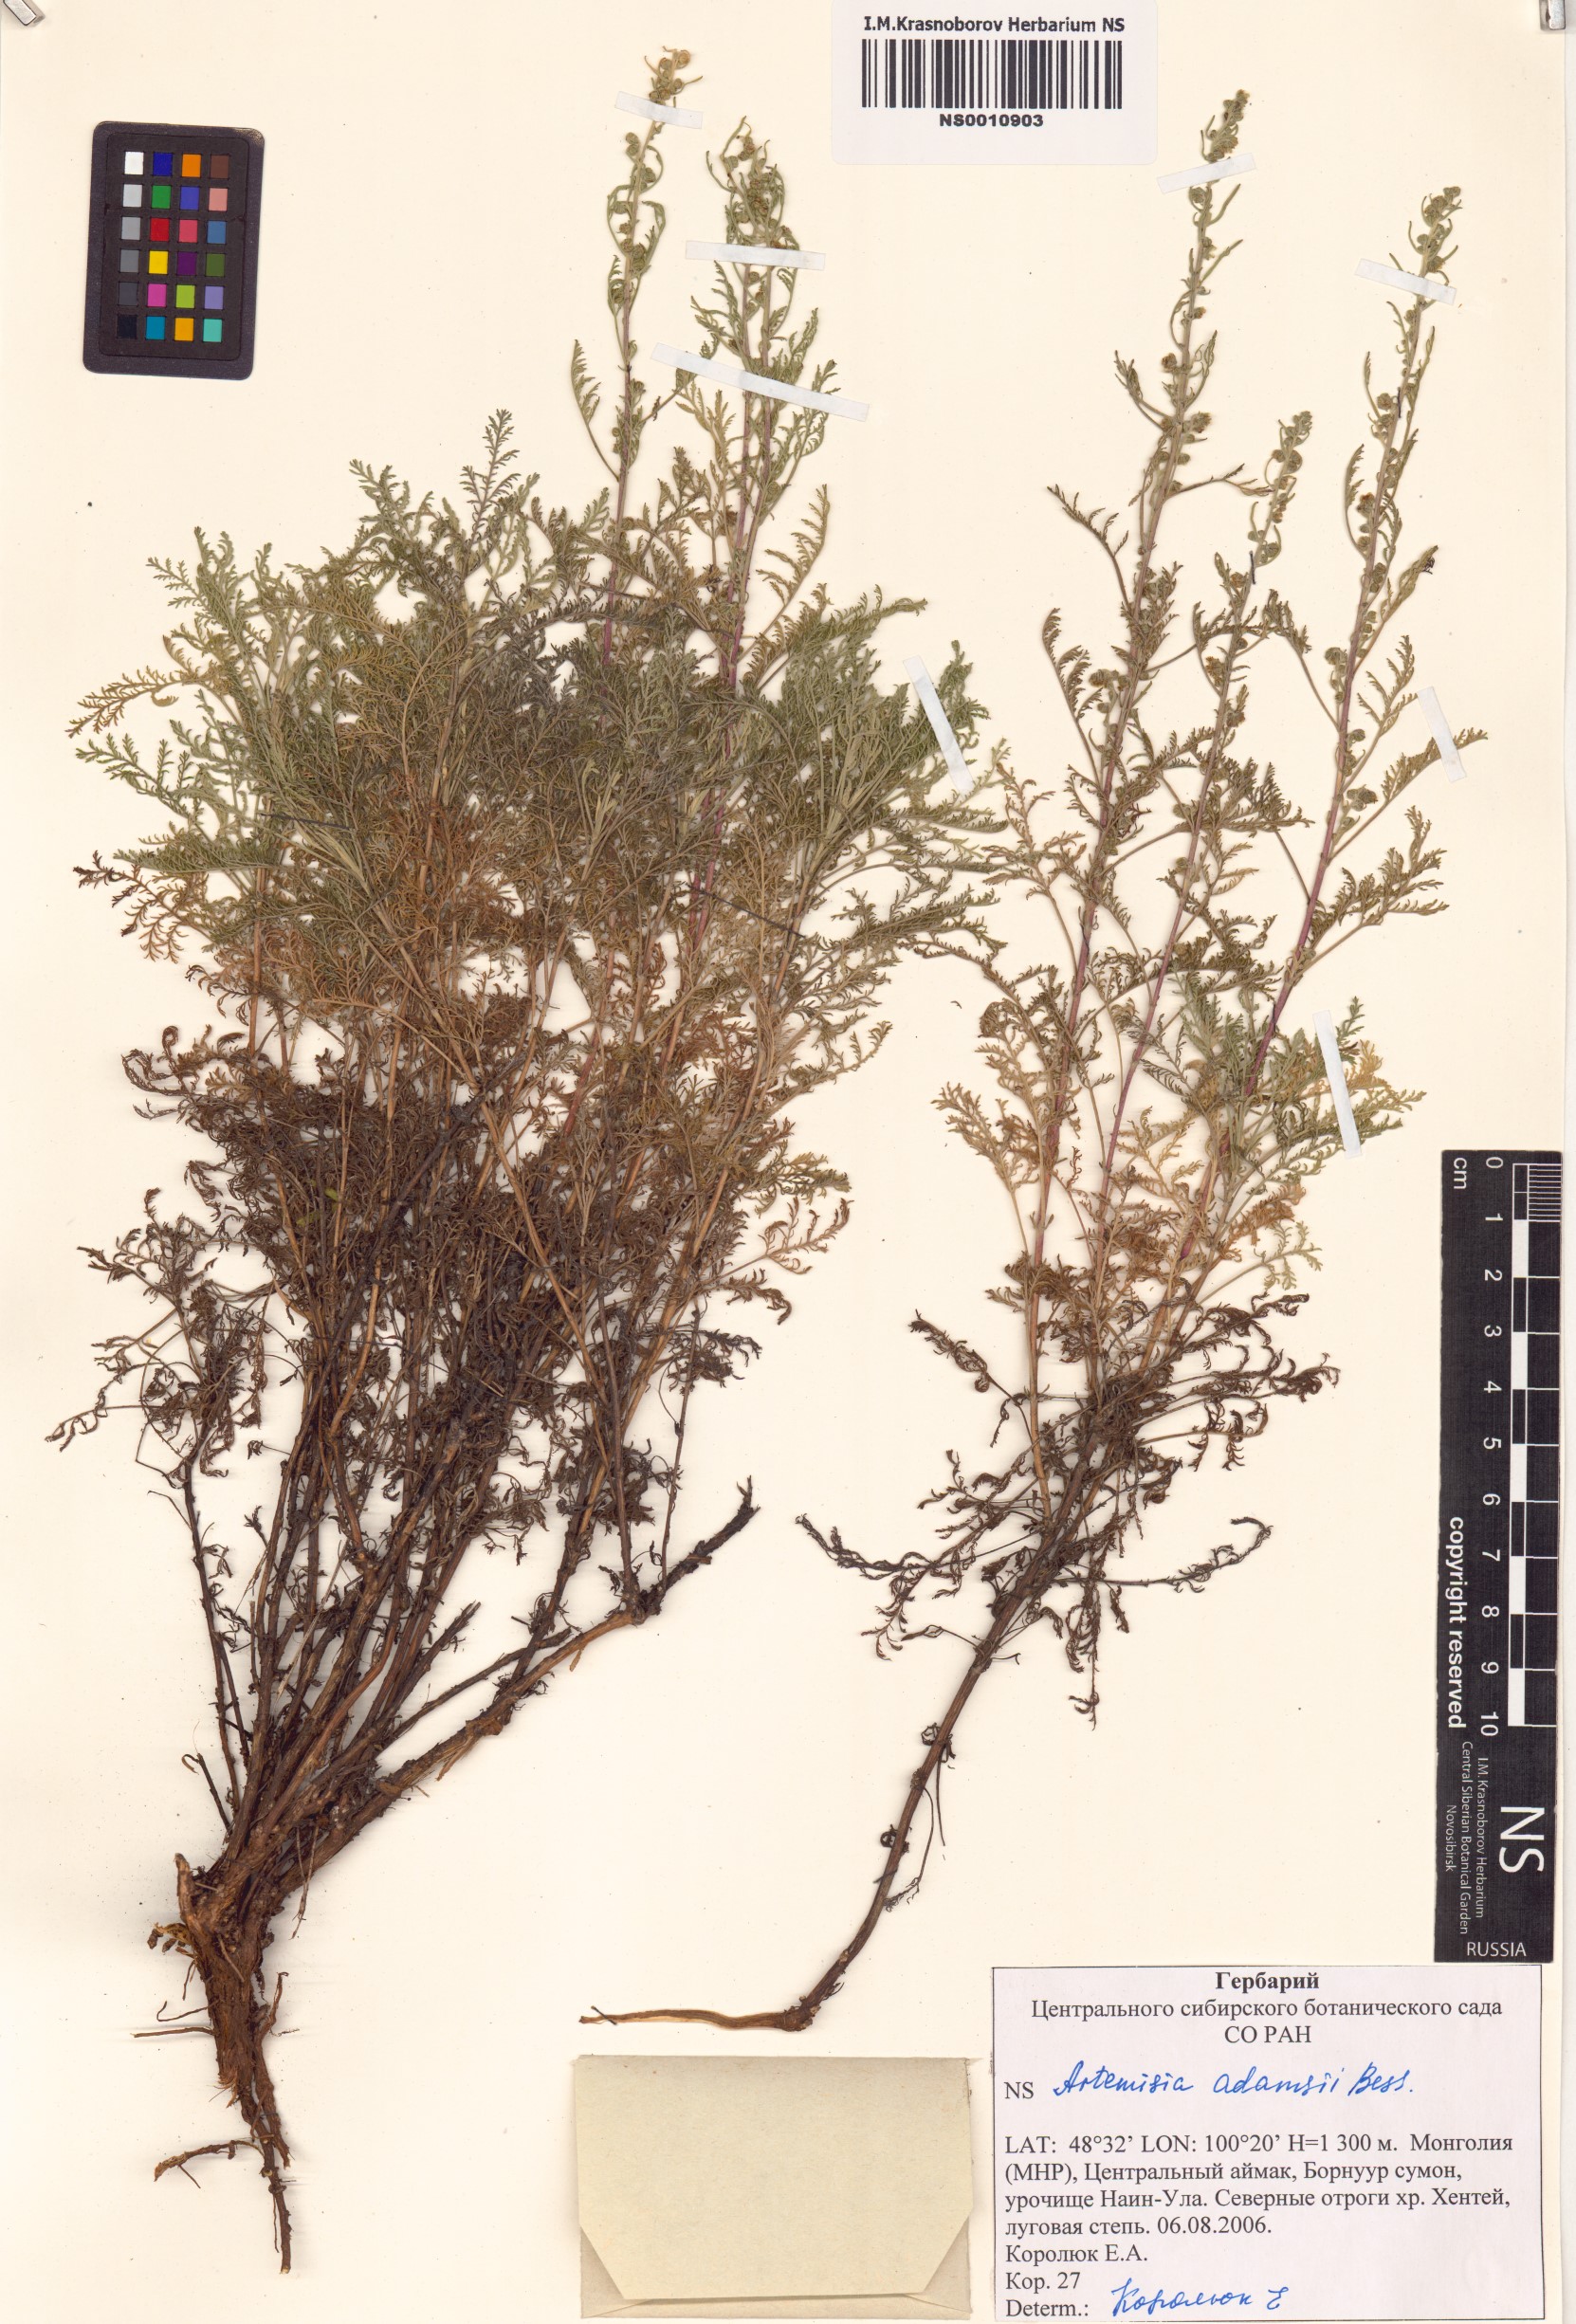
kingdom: Plantae
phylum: Tracheophyta
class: Magnoliopsida
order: Asterales
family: Asteraceae
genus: Artemisia
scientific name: Artemisia adamsii
